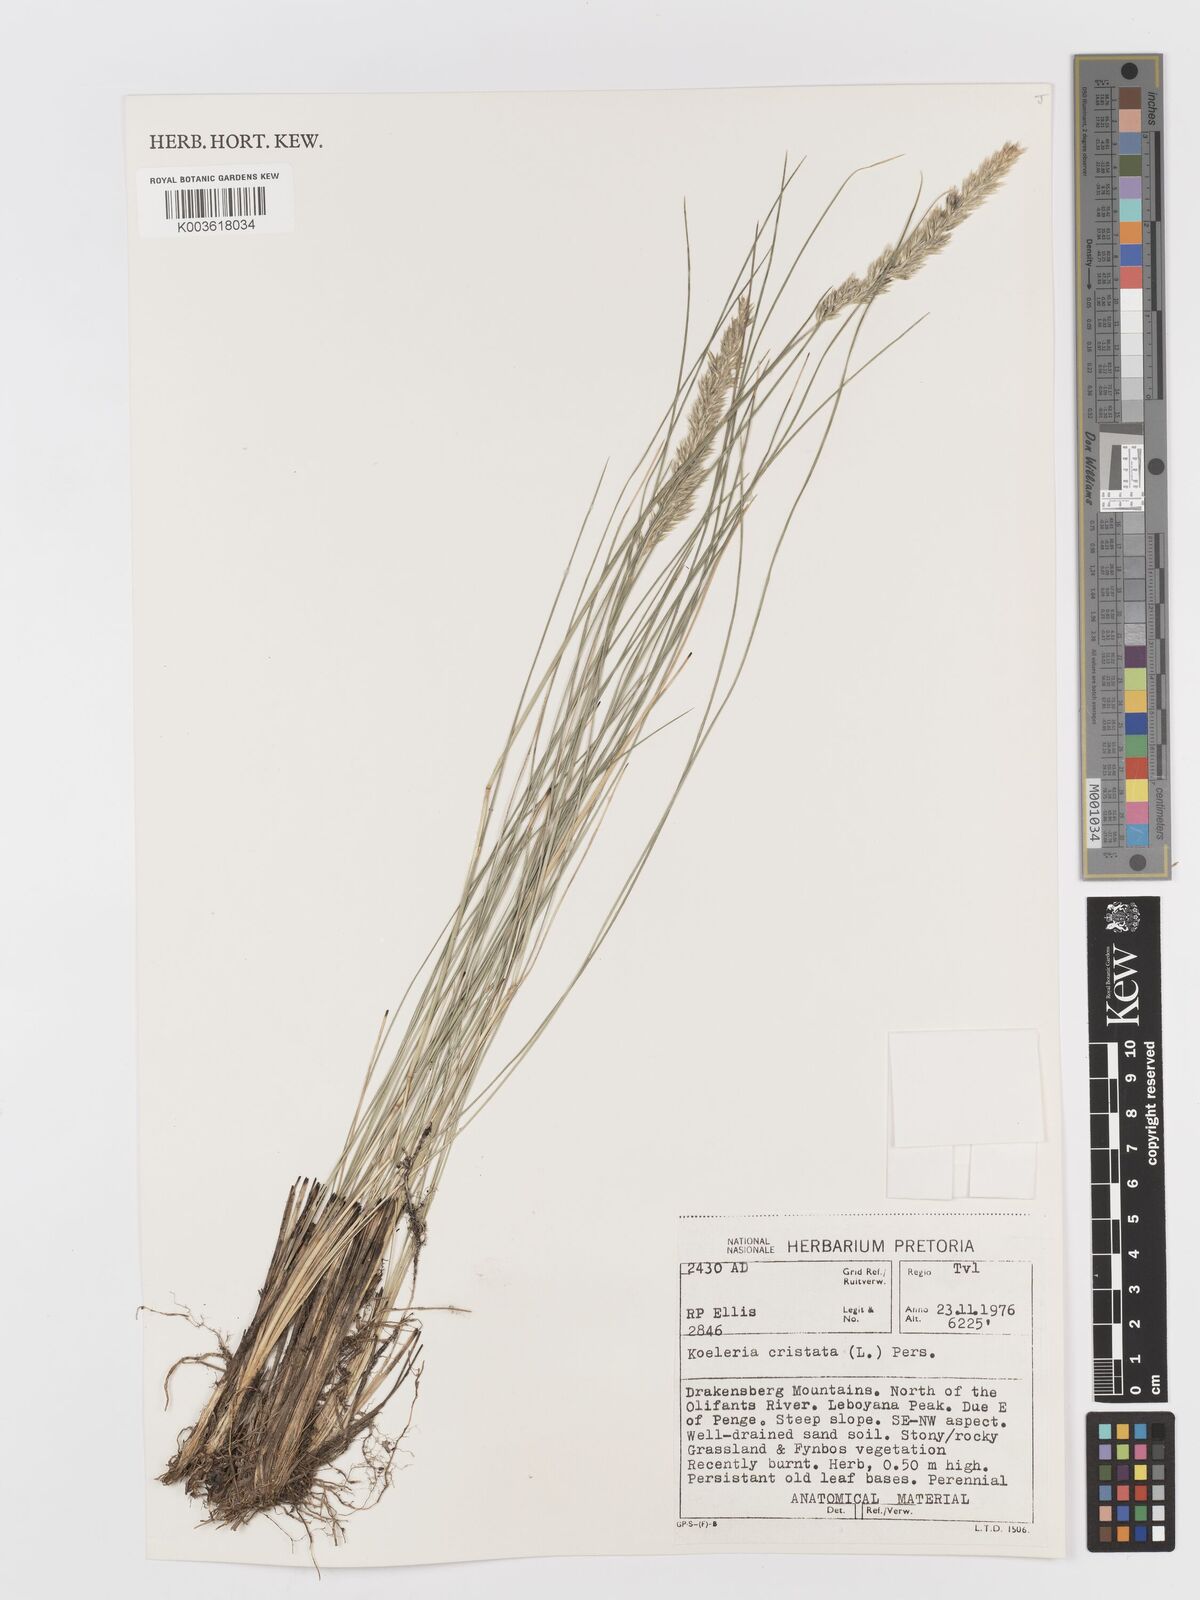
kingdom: Plantae
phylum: Tracheophyta
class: Liliopsida
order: Poales
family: Poaceae
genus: Koeleria
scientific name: Koeleria capensis
